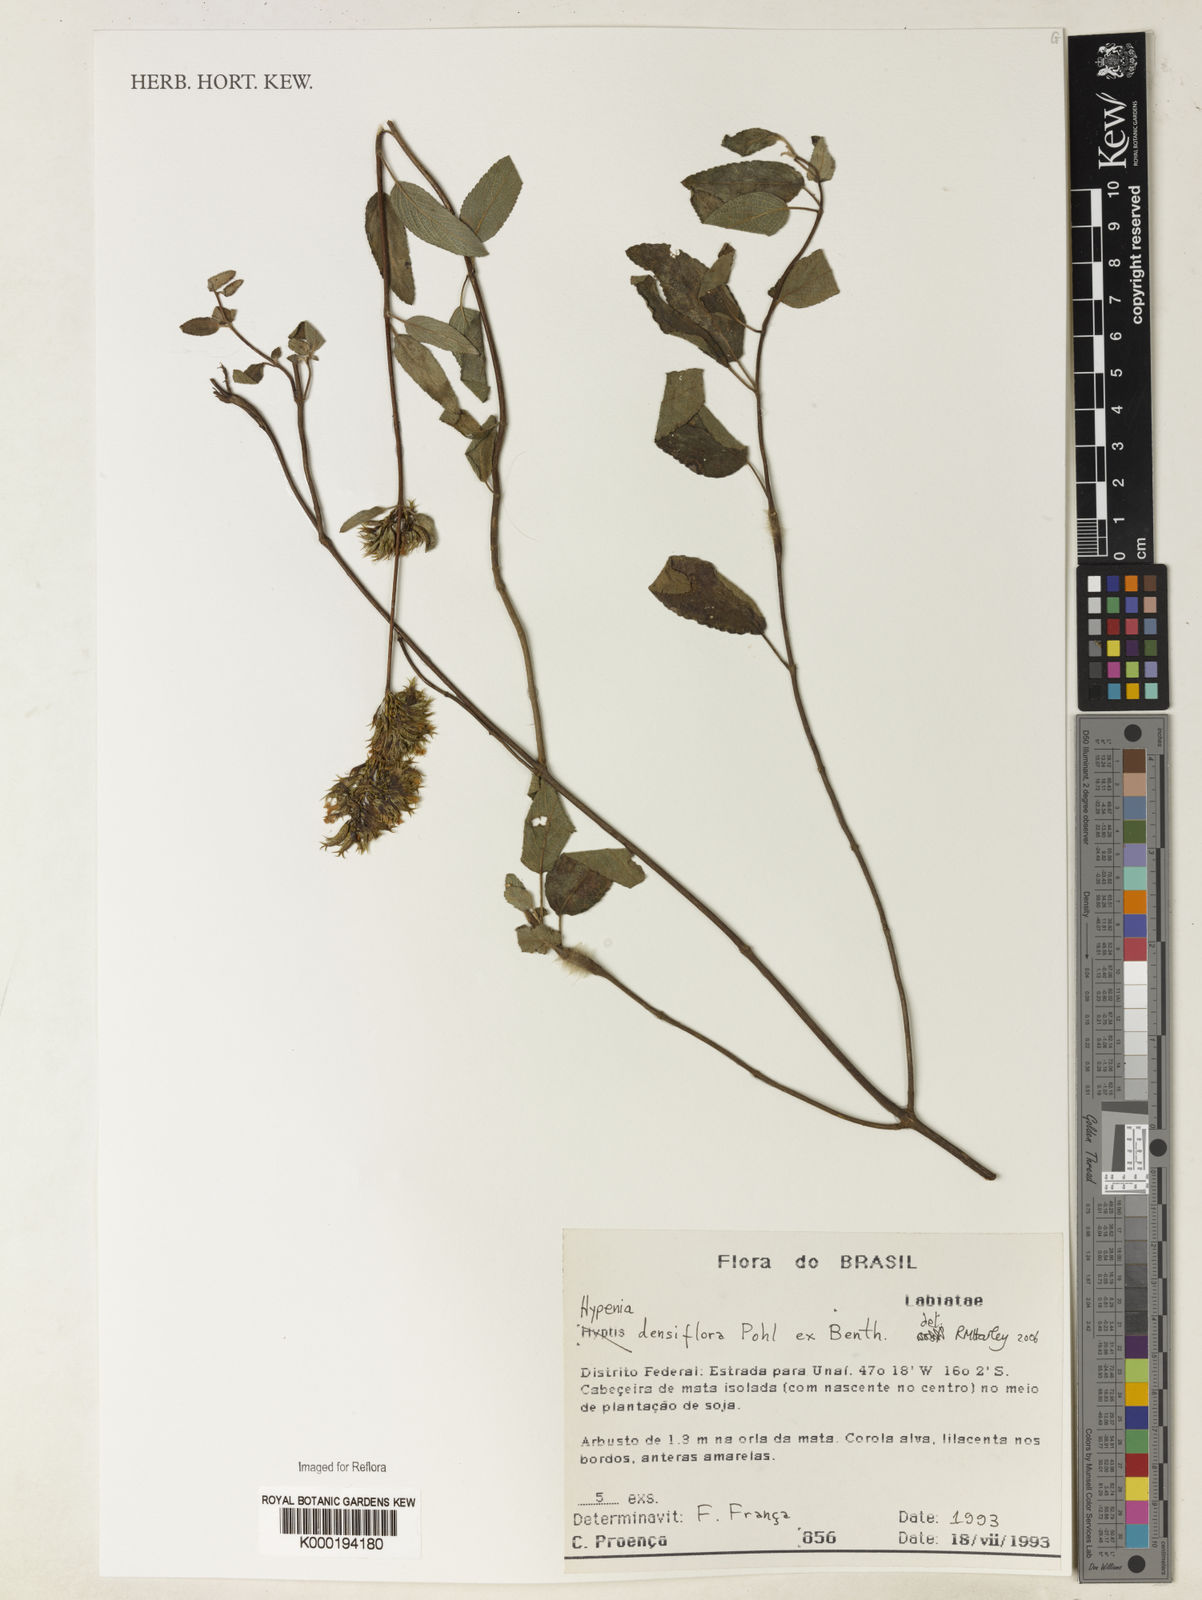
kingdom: Plantae
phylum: Tracheophyta
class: Magnoliopsida
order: Lamiales
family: Lamiaceae
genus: Hypenia
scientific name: Hypenia densiflora
